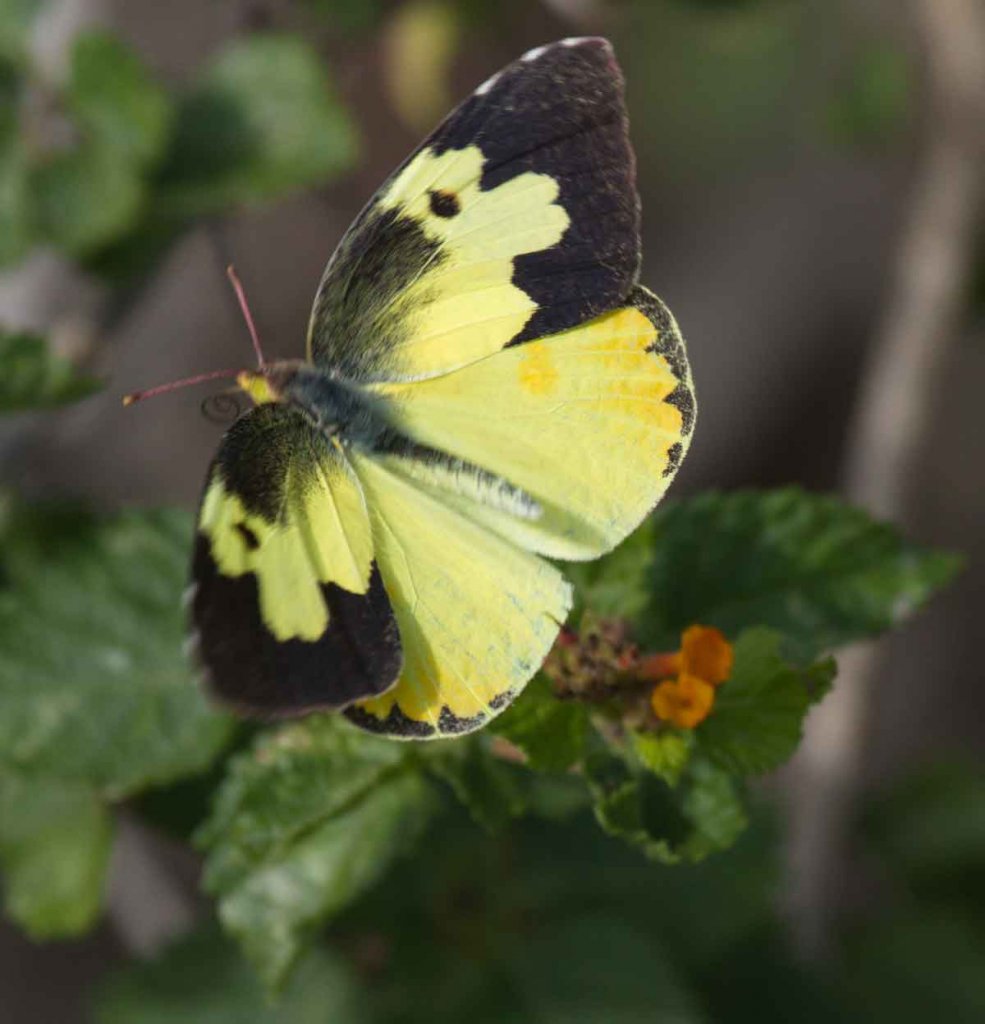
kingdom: Animalia
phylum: Arthropoda
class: Insecta
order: Lepidoptera
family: Pieridae
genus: Zerene
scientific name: Zerene cesonia
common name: Southern Dogface
